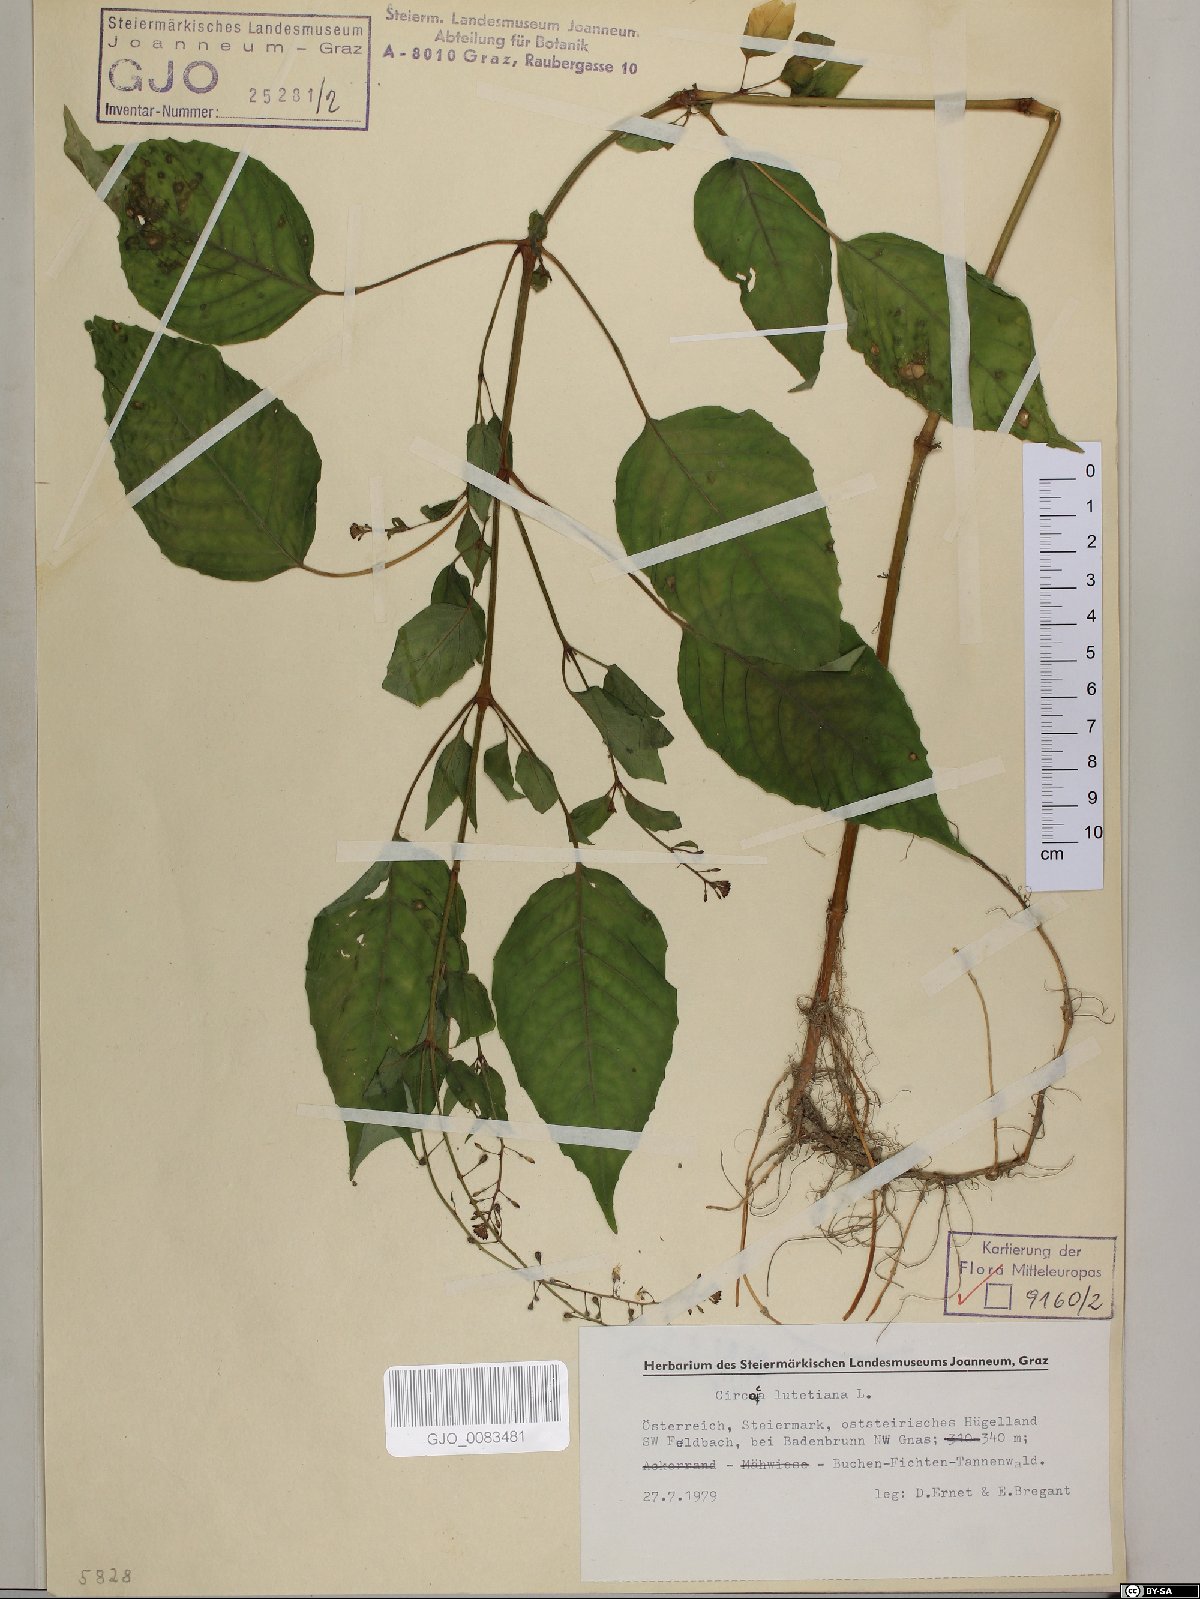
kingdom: Plantae
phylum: Tracheophyta
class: Magnoliopsida
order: Myrtales
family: Onagraceae
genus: Circaea
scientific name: Circaea lutetiana
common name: Enchanter's-nightshade
